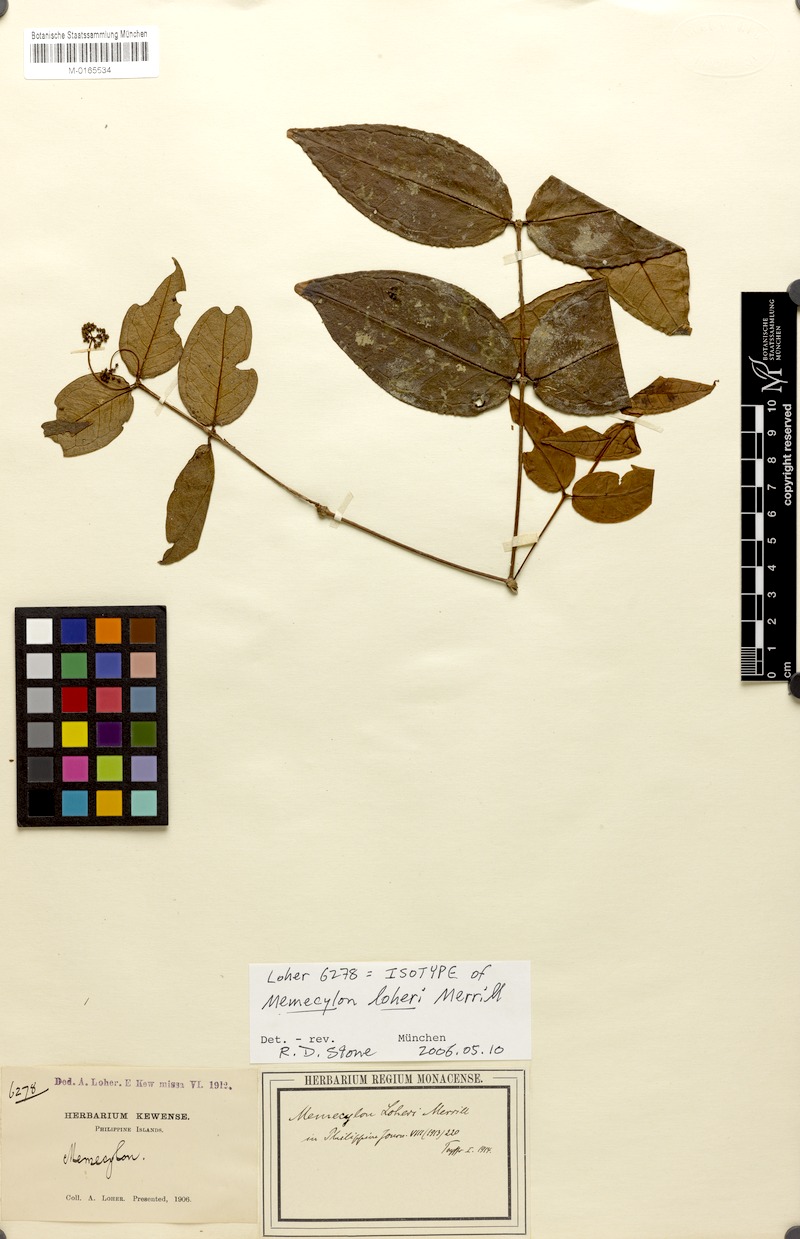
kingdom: Plantae
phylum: Tracheophyta
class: Magnoliopsida
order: Myrtales
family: Melastomataceae
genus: Memecylon
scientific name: Memecylon loheri
